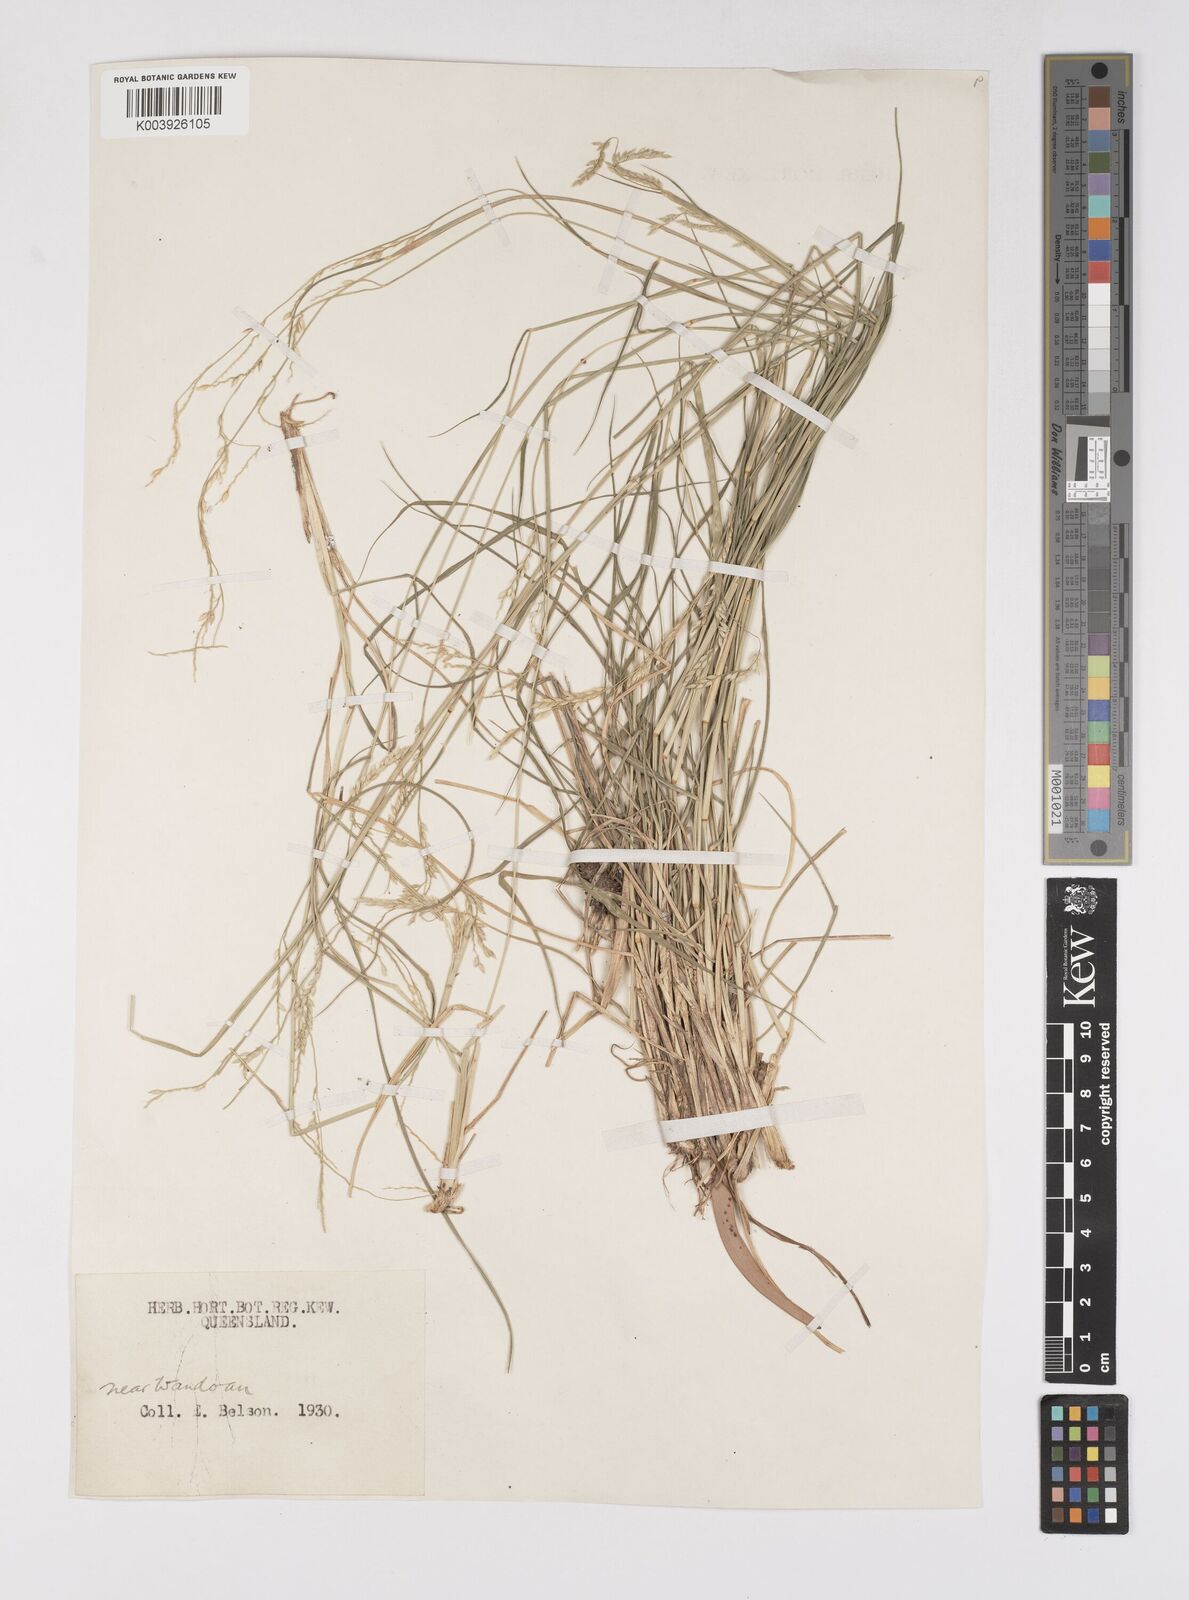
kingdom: Plantae
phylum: Tracheophyta
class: Liliopsida
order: Poales
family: Poaceae
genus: Eriochloa
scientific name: Eriochloa
